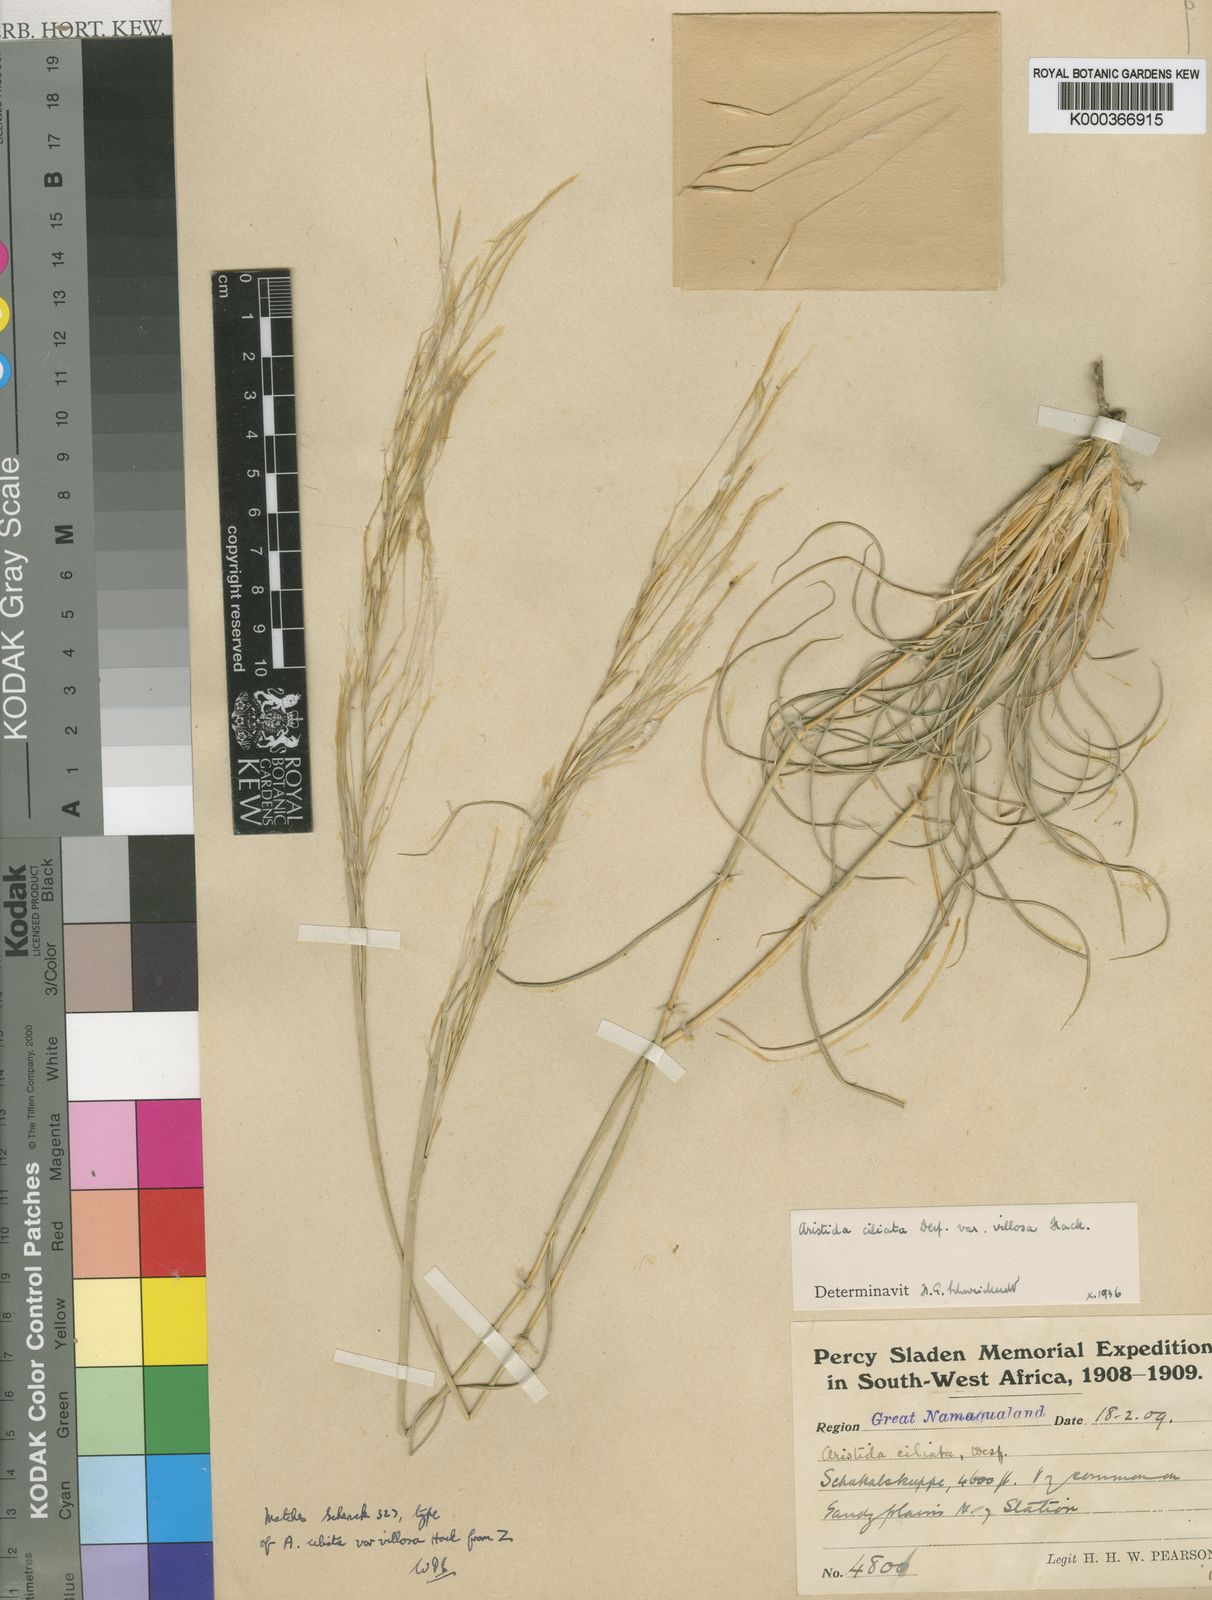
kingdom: Plantae
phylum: Tracheophyta
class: Liliopsida
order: Poales
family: Poaceae
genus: Stipagrostis
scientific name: Stipagrostis ciliata
